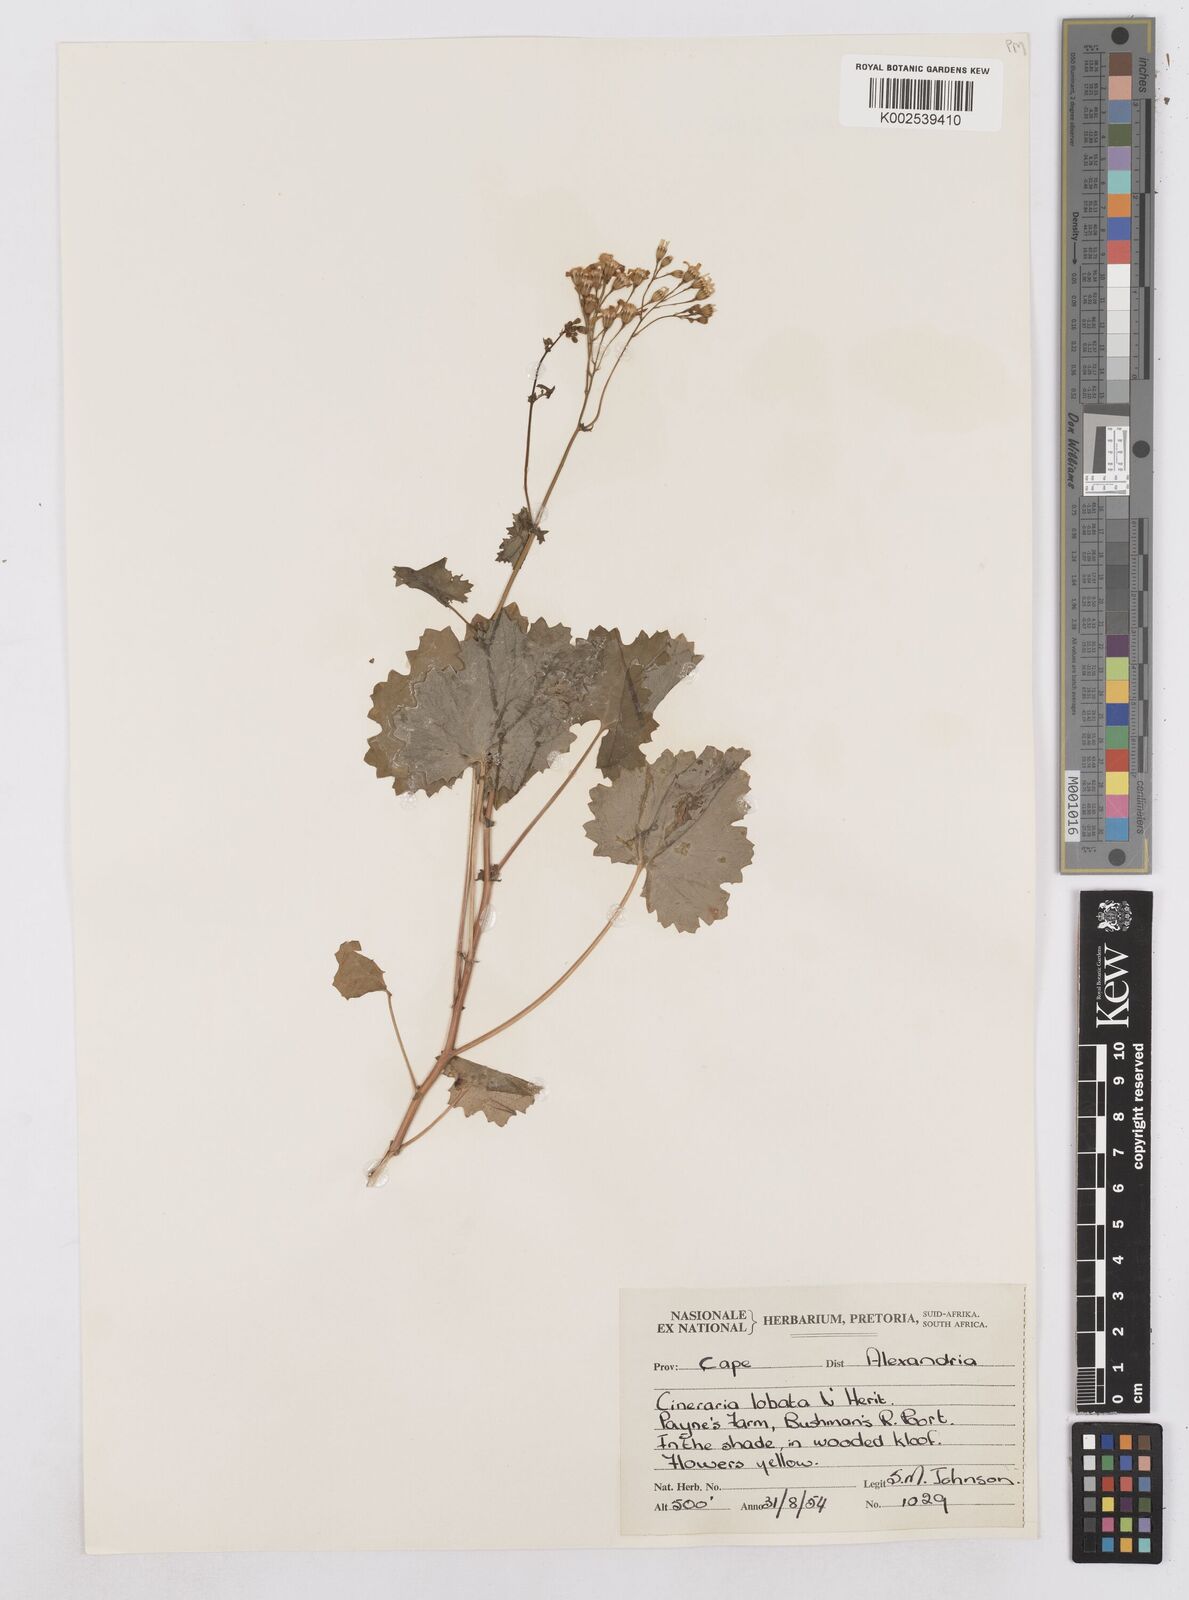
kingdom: Plantae
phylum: Tracheophyta
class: Magnoliopsida
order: Asterales
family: Asteraceae
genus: Cineraria
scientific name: Cineraria
